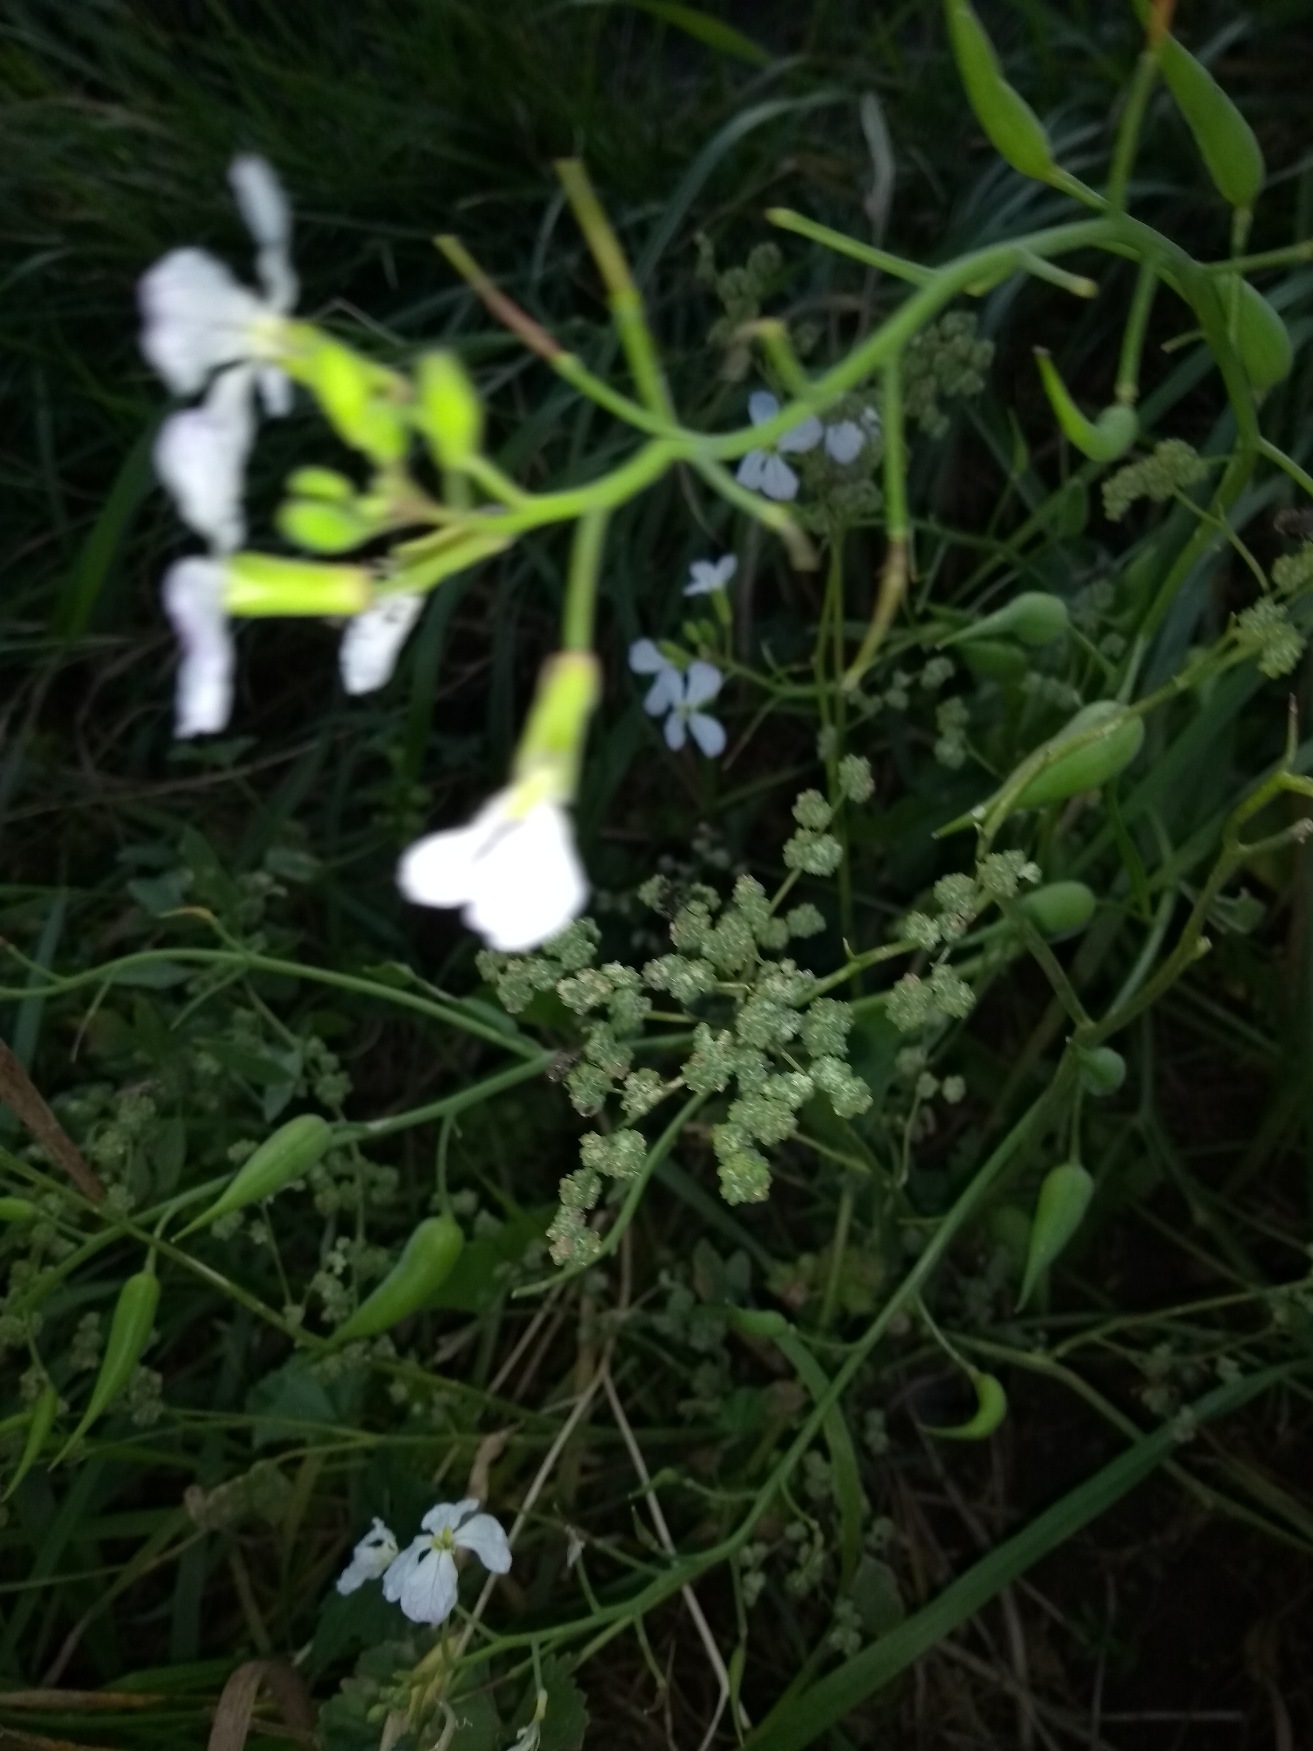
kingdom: Plantae
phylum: Tracheophyta
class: Magnoliopsida
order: Brassicales
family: Brassicaceae
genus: Raphanus
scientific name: Raphanus sativus
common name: Olie-ræddike
